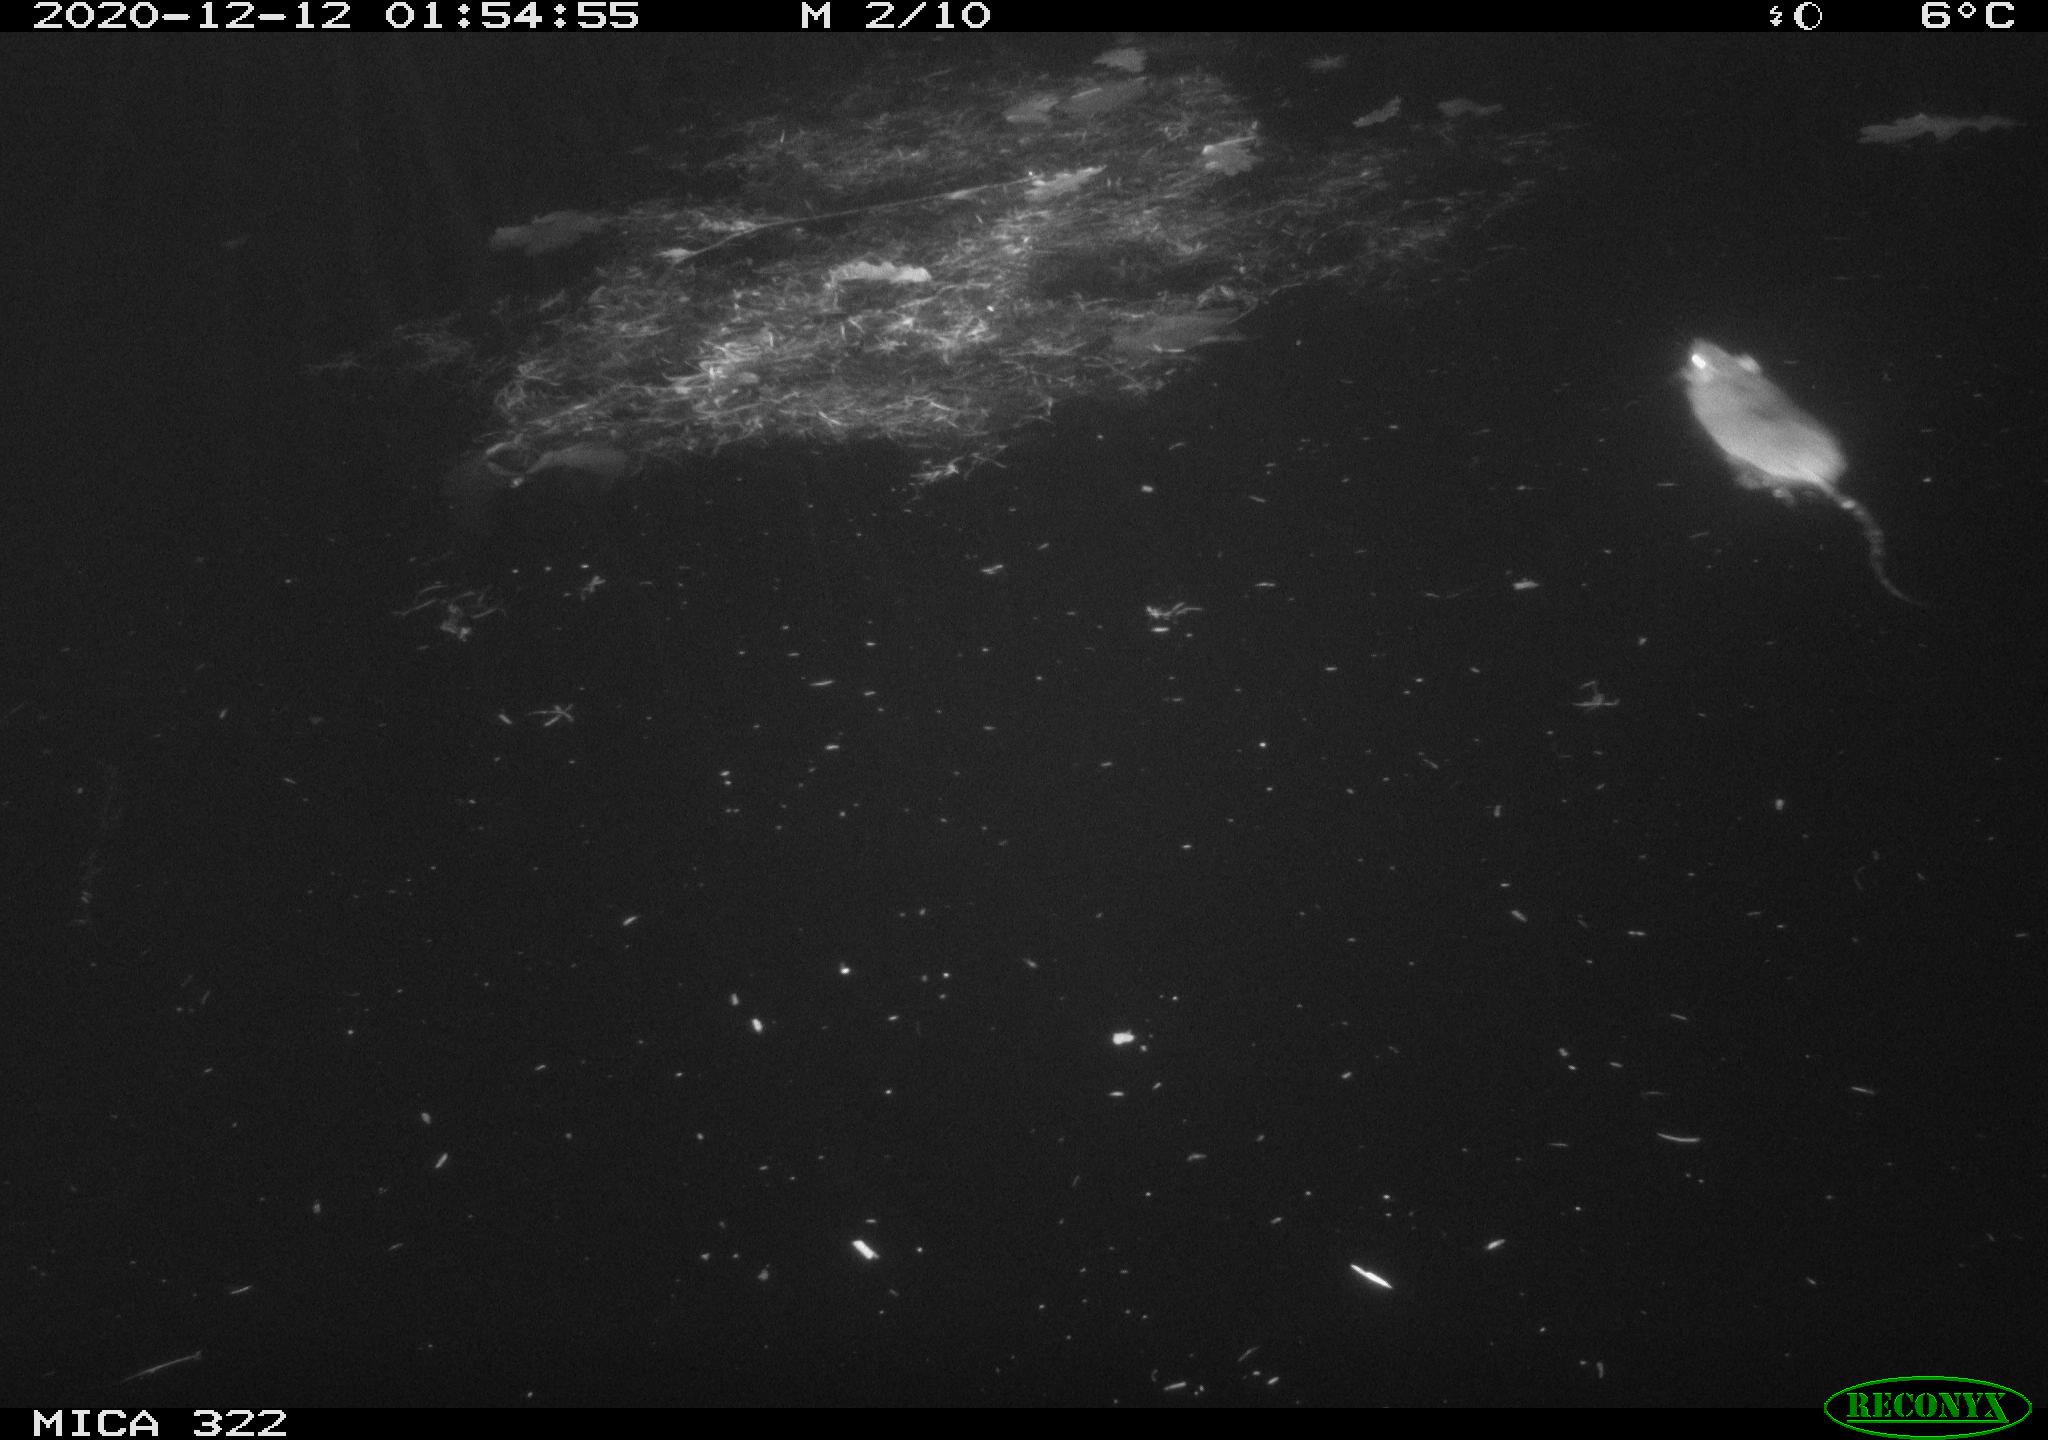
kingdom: Animalia
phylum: Chordata
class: Mammalia
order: Rodentia
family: Muridae
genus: Rattus
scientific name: Rattus norvegicus
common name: Brown rat
